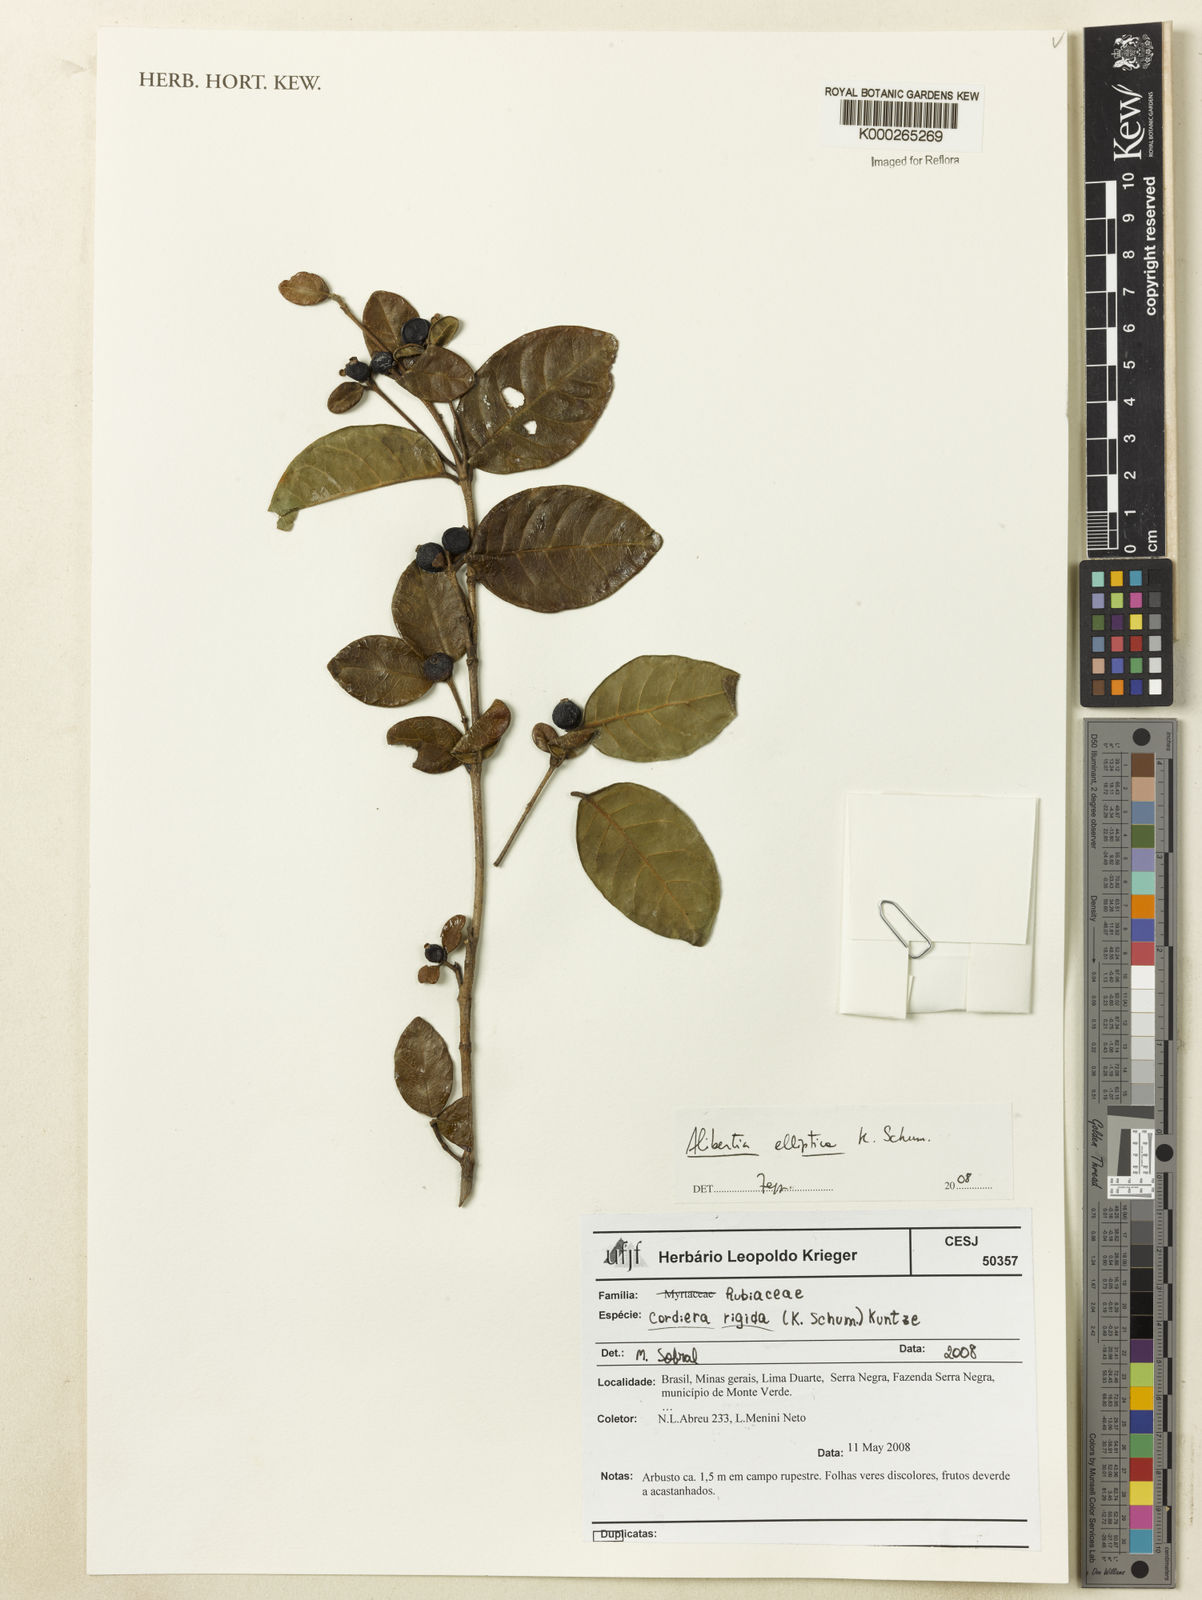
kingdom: Plantae
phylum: Tracheophyta
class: Magnoliopsida
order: Gentianales
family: Rubiaceae
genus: Cordiera
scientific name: Cordiera elliptica
